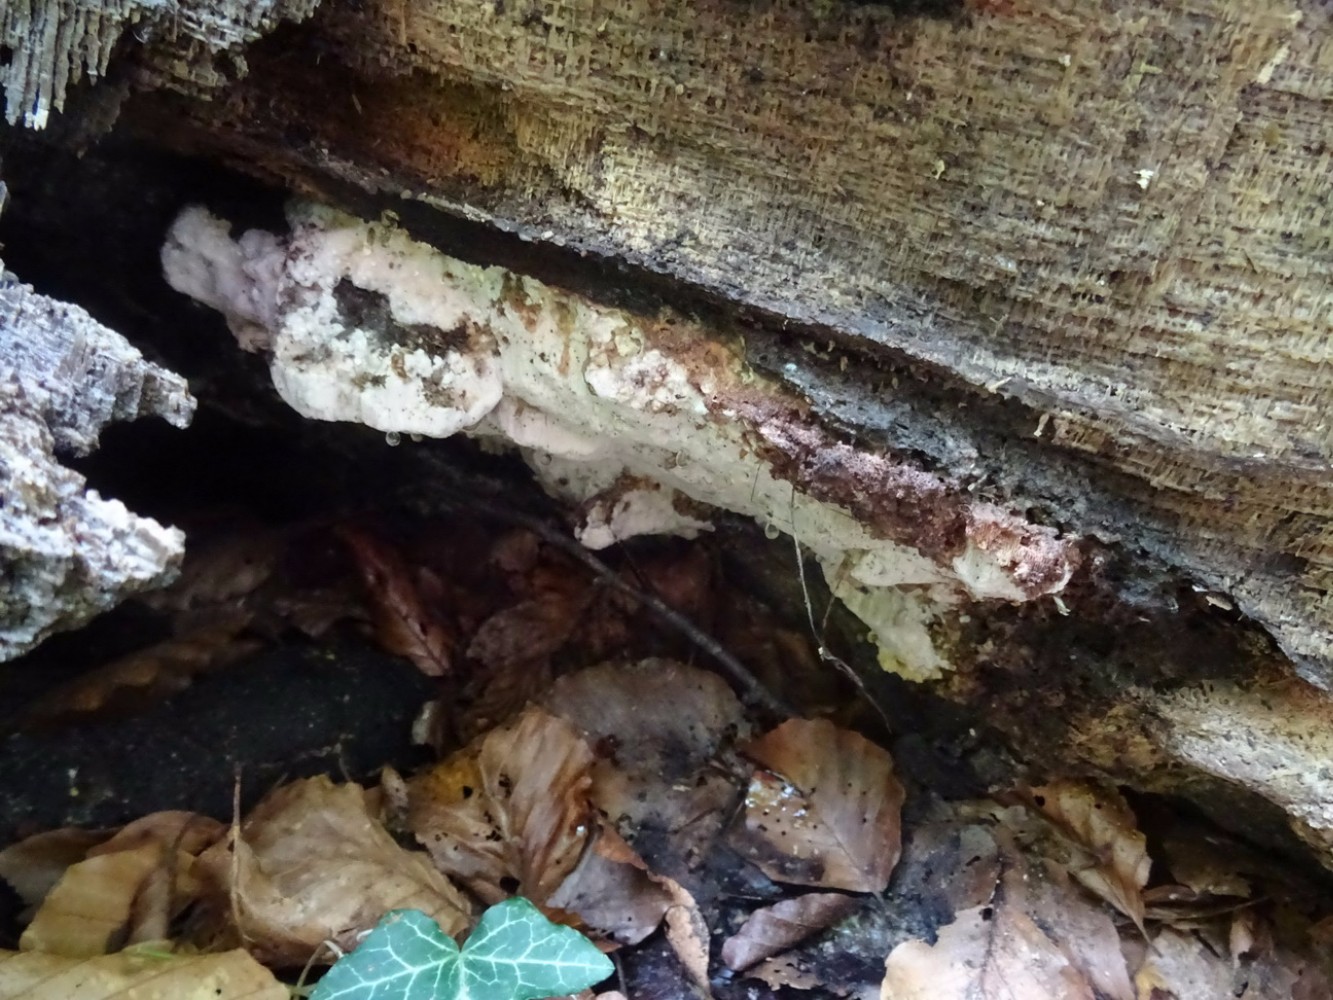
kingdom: Fungi
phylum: Basidiomycota
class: Agaricomycetes
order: Polyporales
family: Meruliaceae
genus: Pappia
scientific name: Pappia fissilis
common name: sej fedtporesvamp
